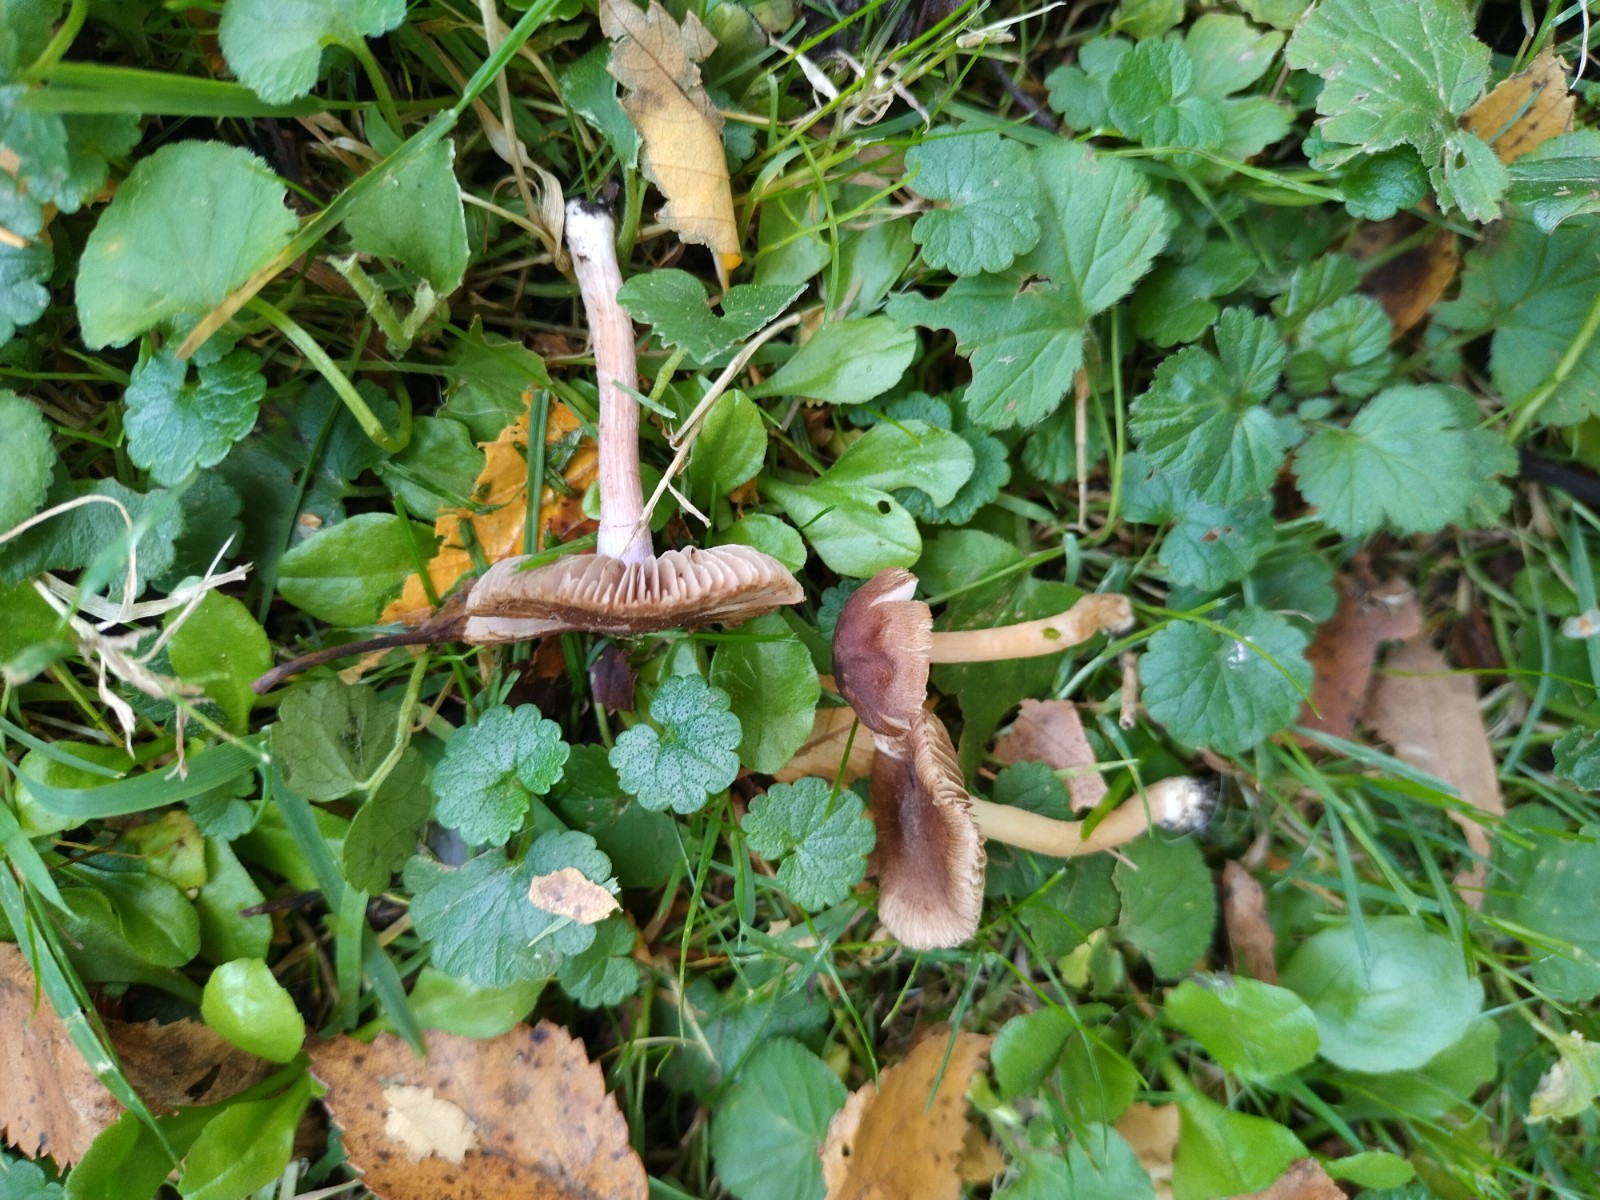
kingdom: Fungi
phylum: Basidiomycota
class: Agaricomycetes
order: Agaricales
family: Inocybaceae
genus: Inocybe
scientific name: Inocybe
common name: trævlhat
